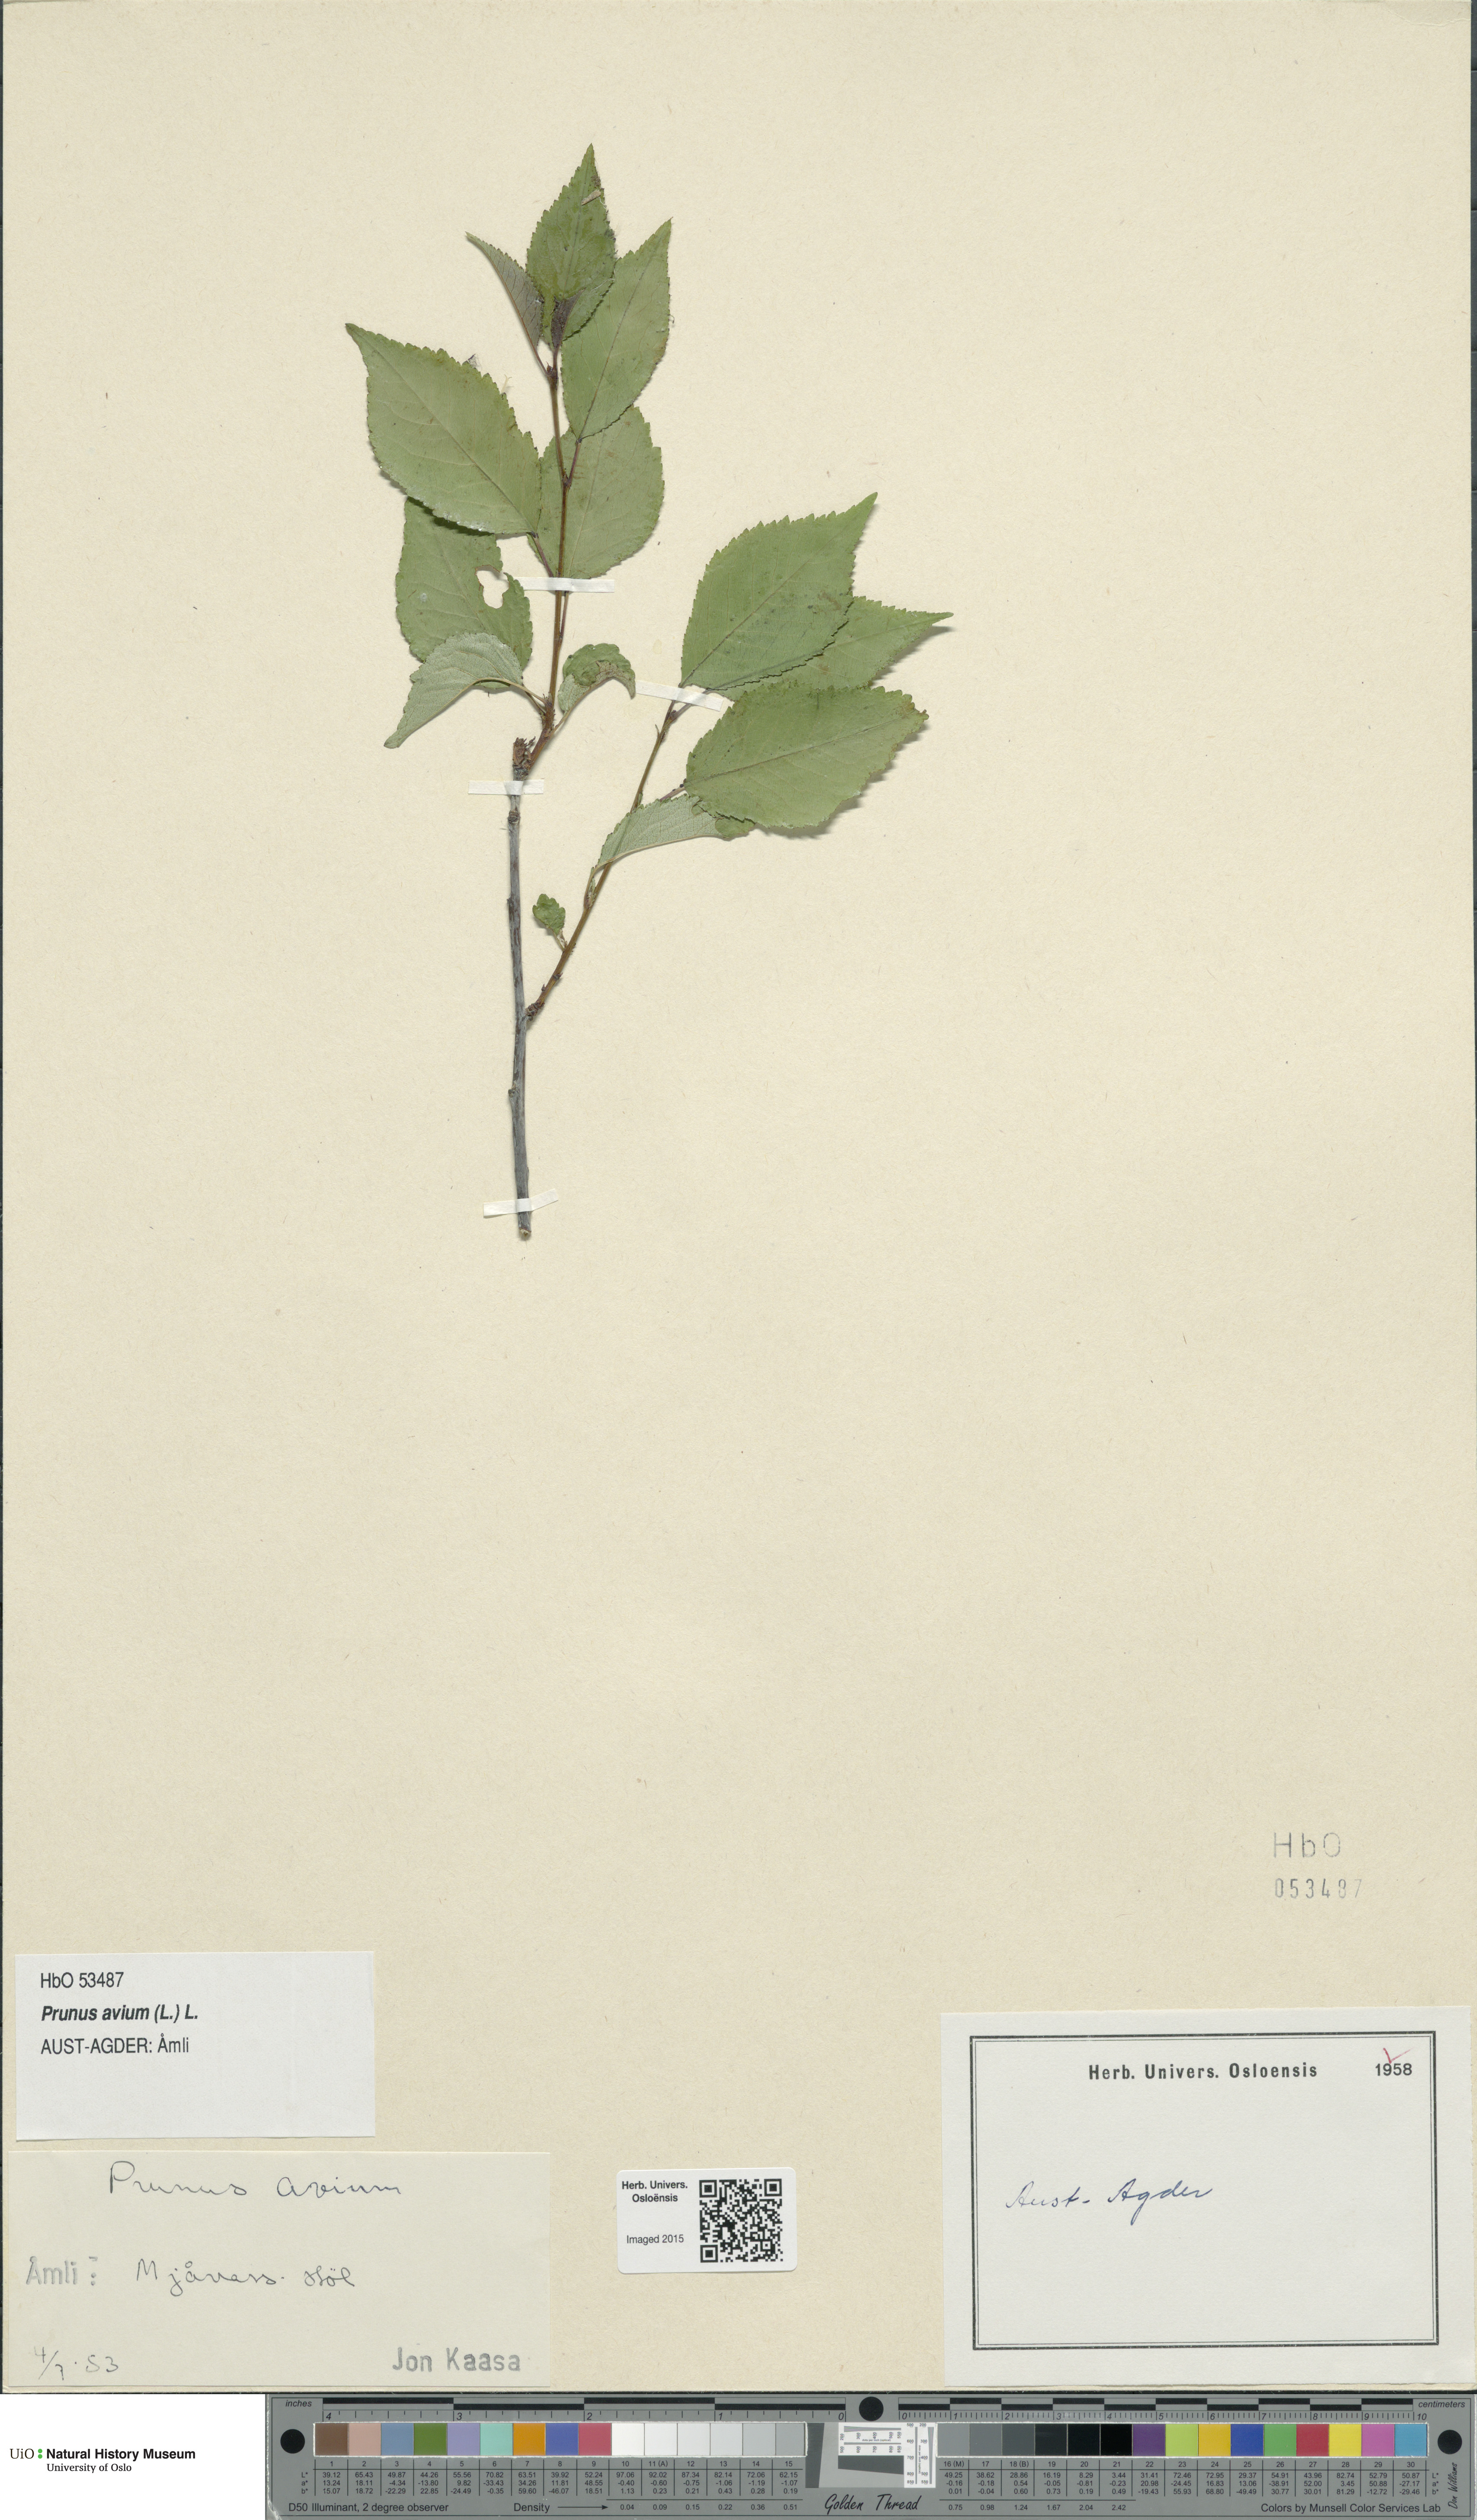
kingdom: Plantae
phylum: Tracheophyta
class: Magnoliopsida
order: Rosales
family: Rosaceae
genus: Prunus
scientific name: Prunus avium
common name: Sweet cherry
